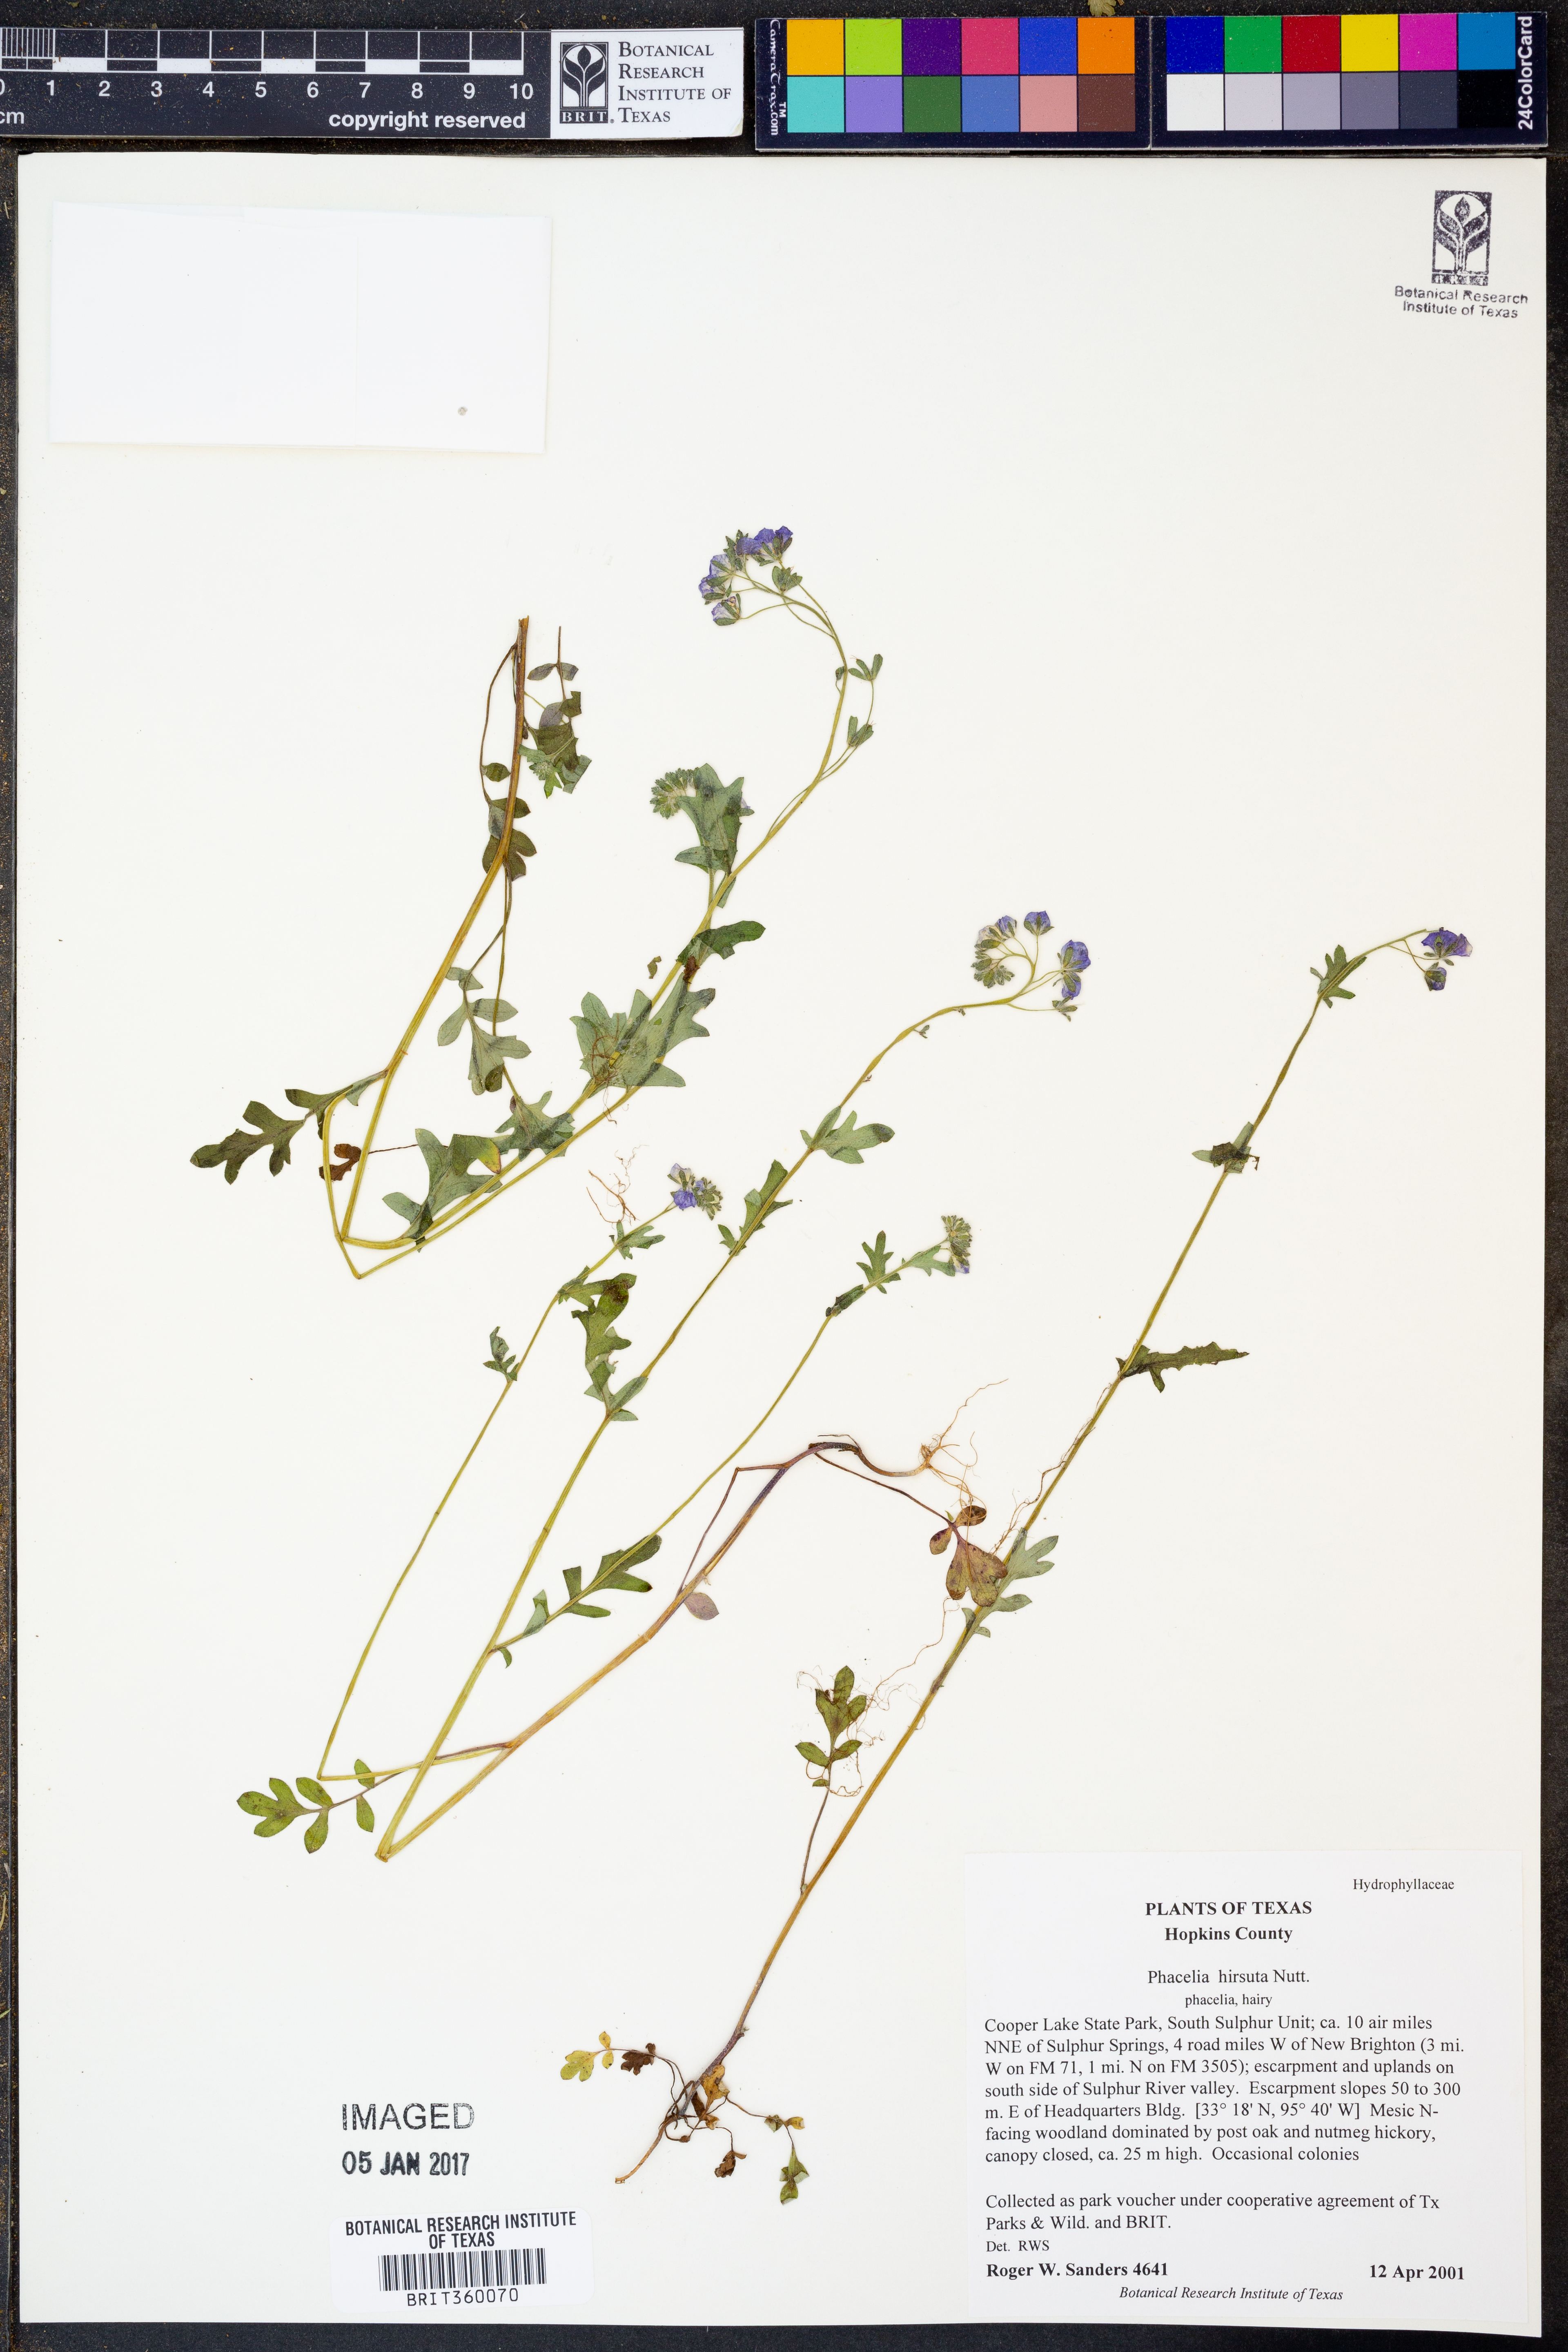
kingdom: Plantae
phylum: Tracheophyta
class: Magnoliopsida
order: Boraginales
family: Hydrophyllaceae
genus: Phacelia
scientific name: Phacelia hirsuta
